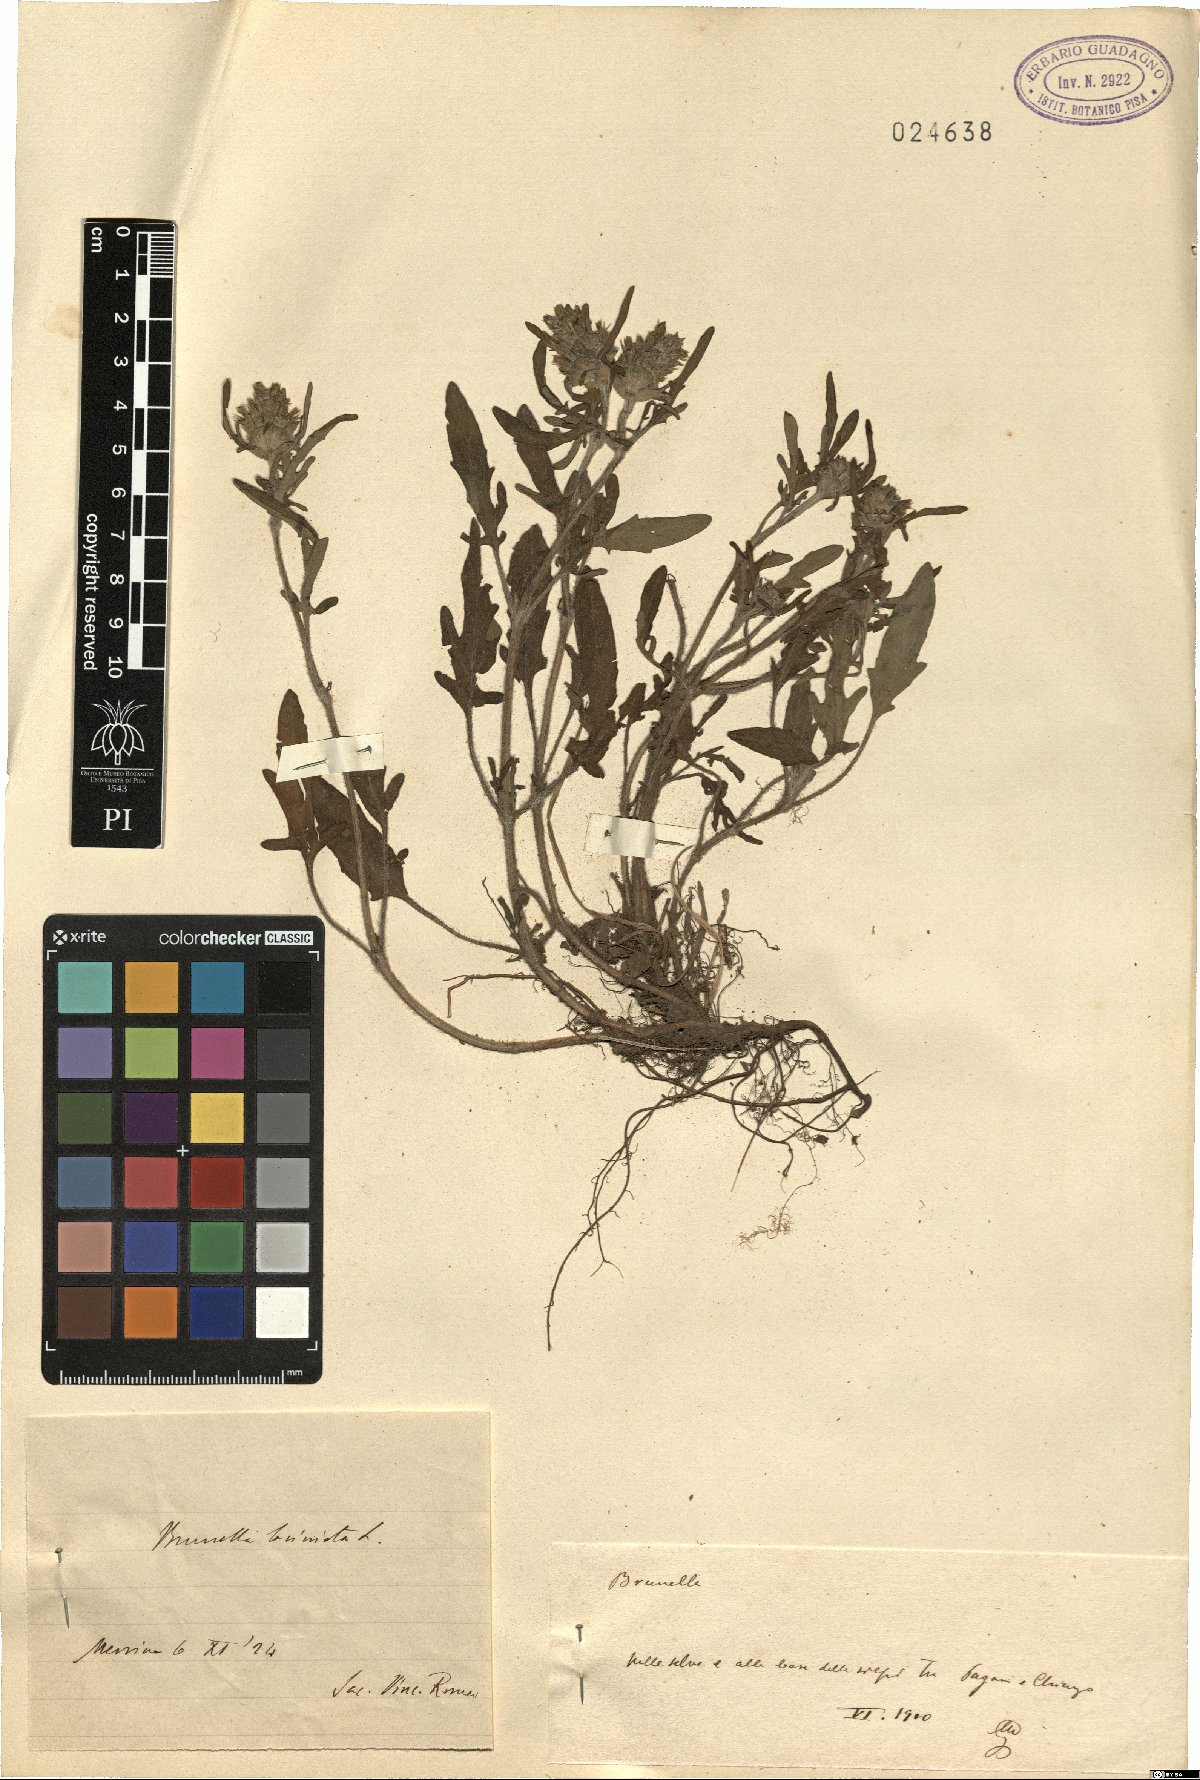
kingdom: Plantae
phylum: Tracheophyta
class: Magnoliopsida
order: Lamiales
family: Lamiaceae
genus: Prunella
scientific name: Prunella
